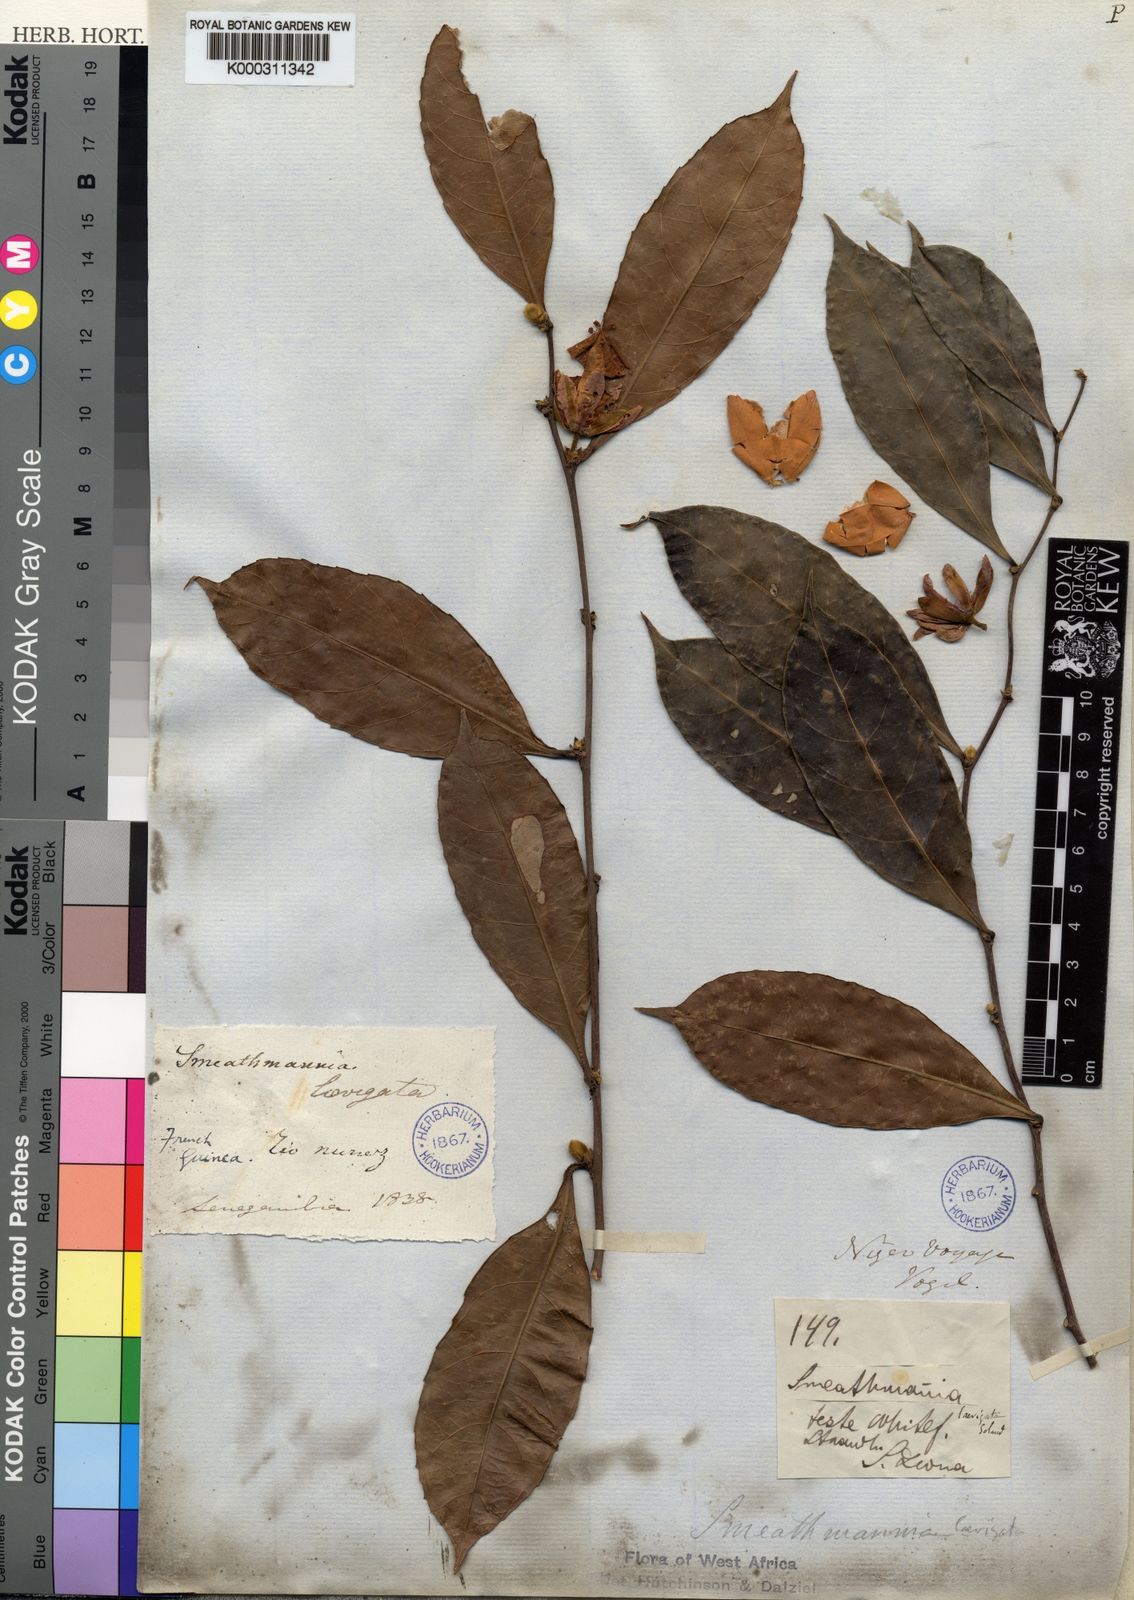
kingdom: Plantae
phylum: Tracheophyta
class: Magnoliopsida
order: Malpighiales
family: Passifloraceae
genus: Smeathmannia
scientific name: Smeathmannia laevigata
